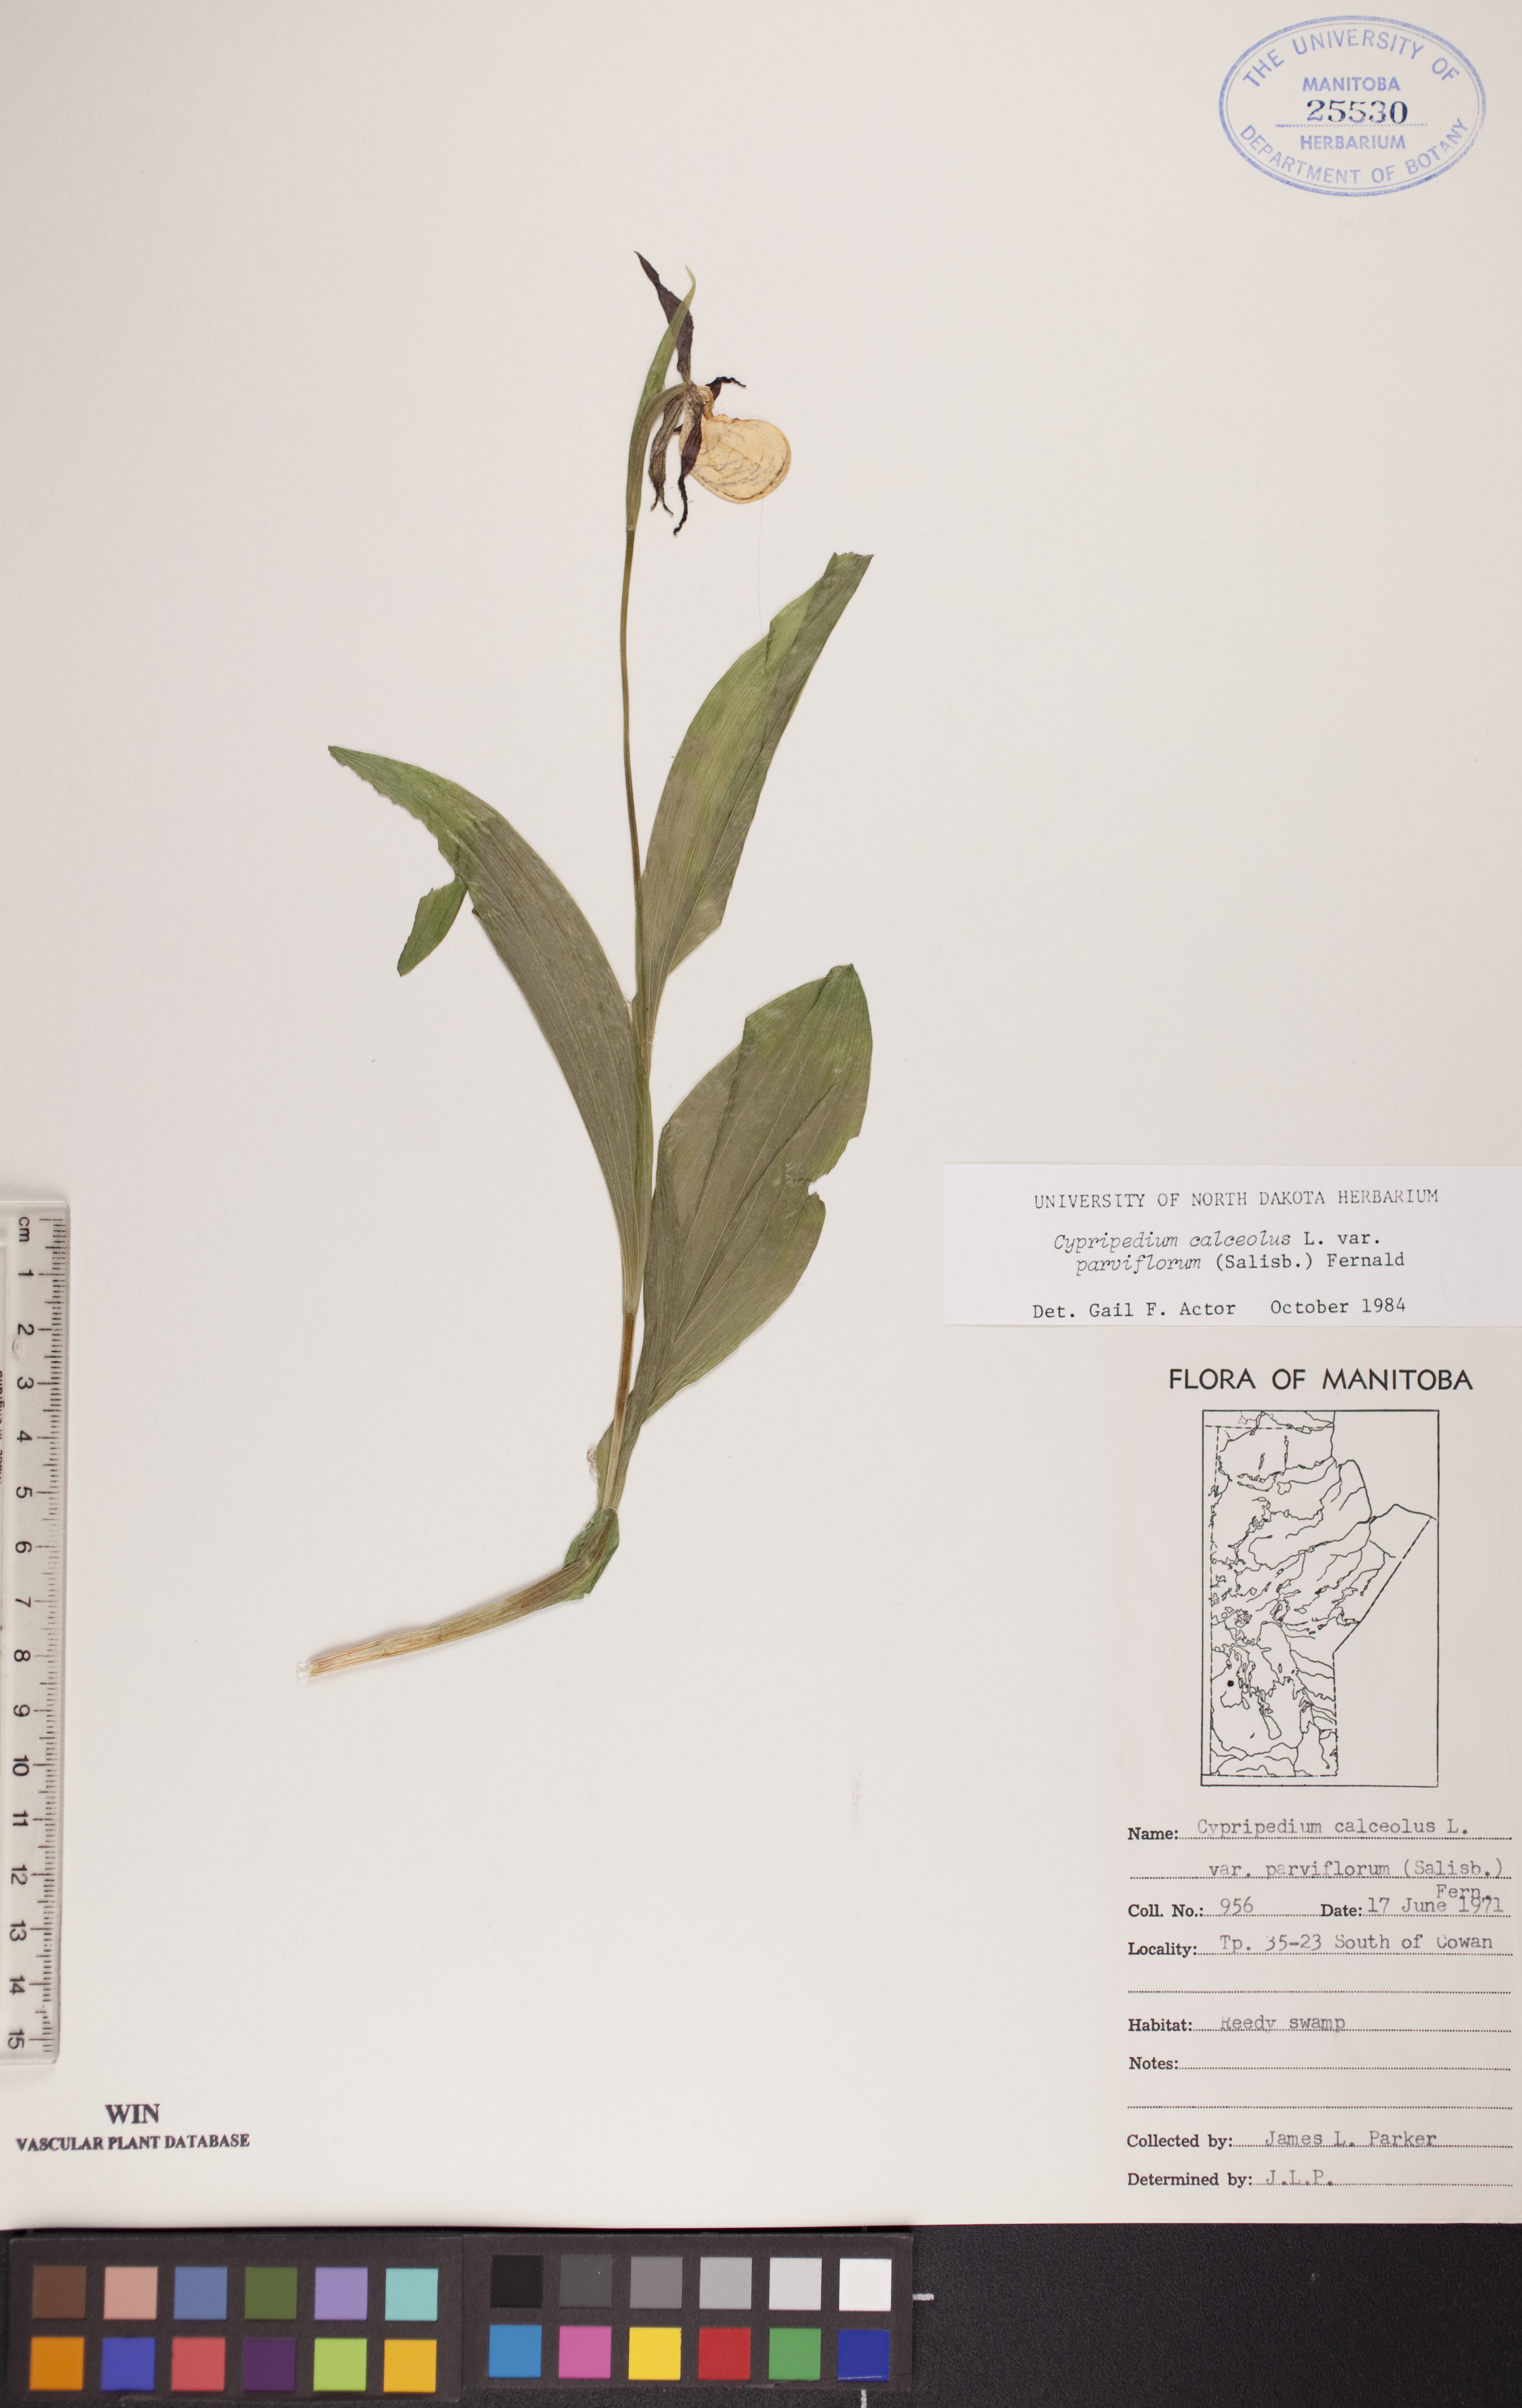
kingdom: Plantae
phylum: Tracheophyta
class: Liliopsida
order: Asparagales
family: Orchidaceae
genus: Cypripedium
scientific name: Cypripedium parviflorum
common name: American yellow lady's-slipper
